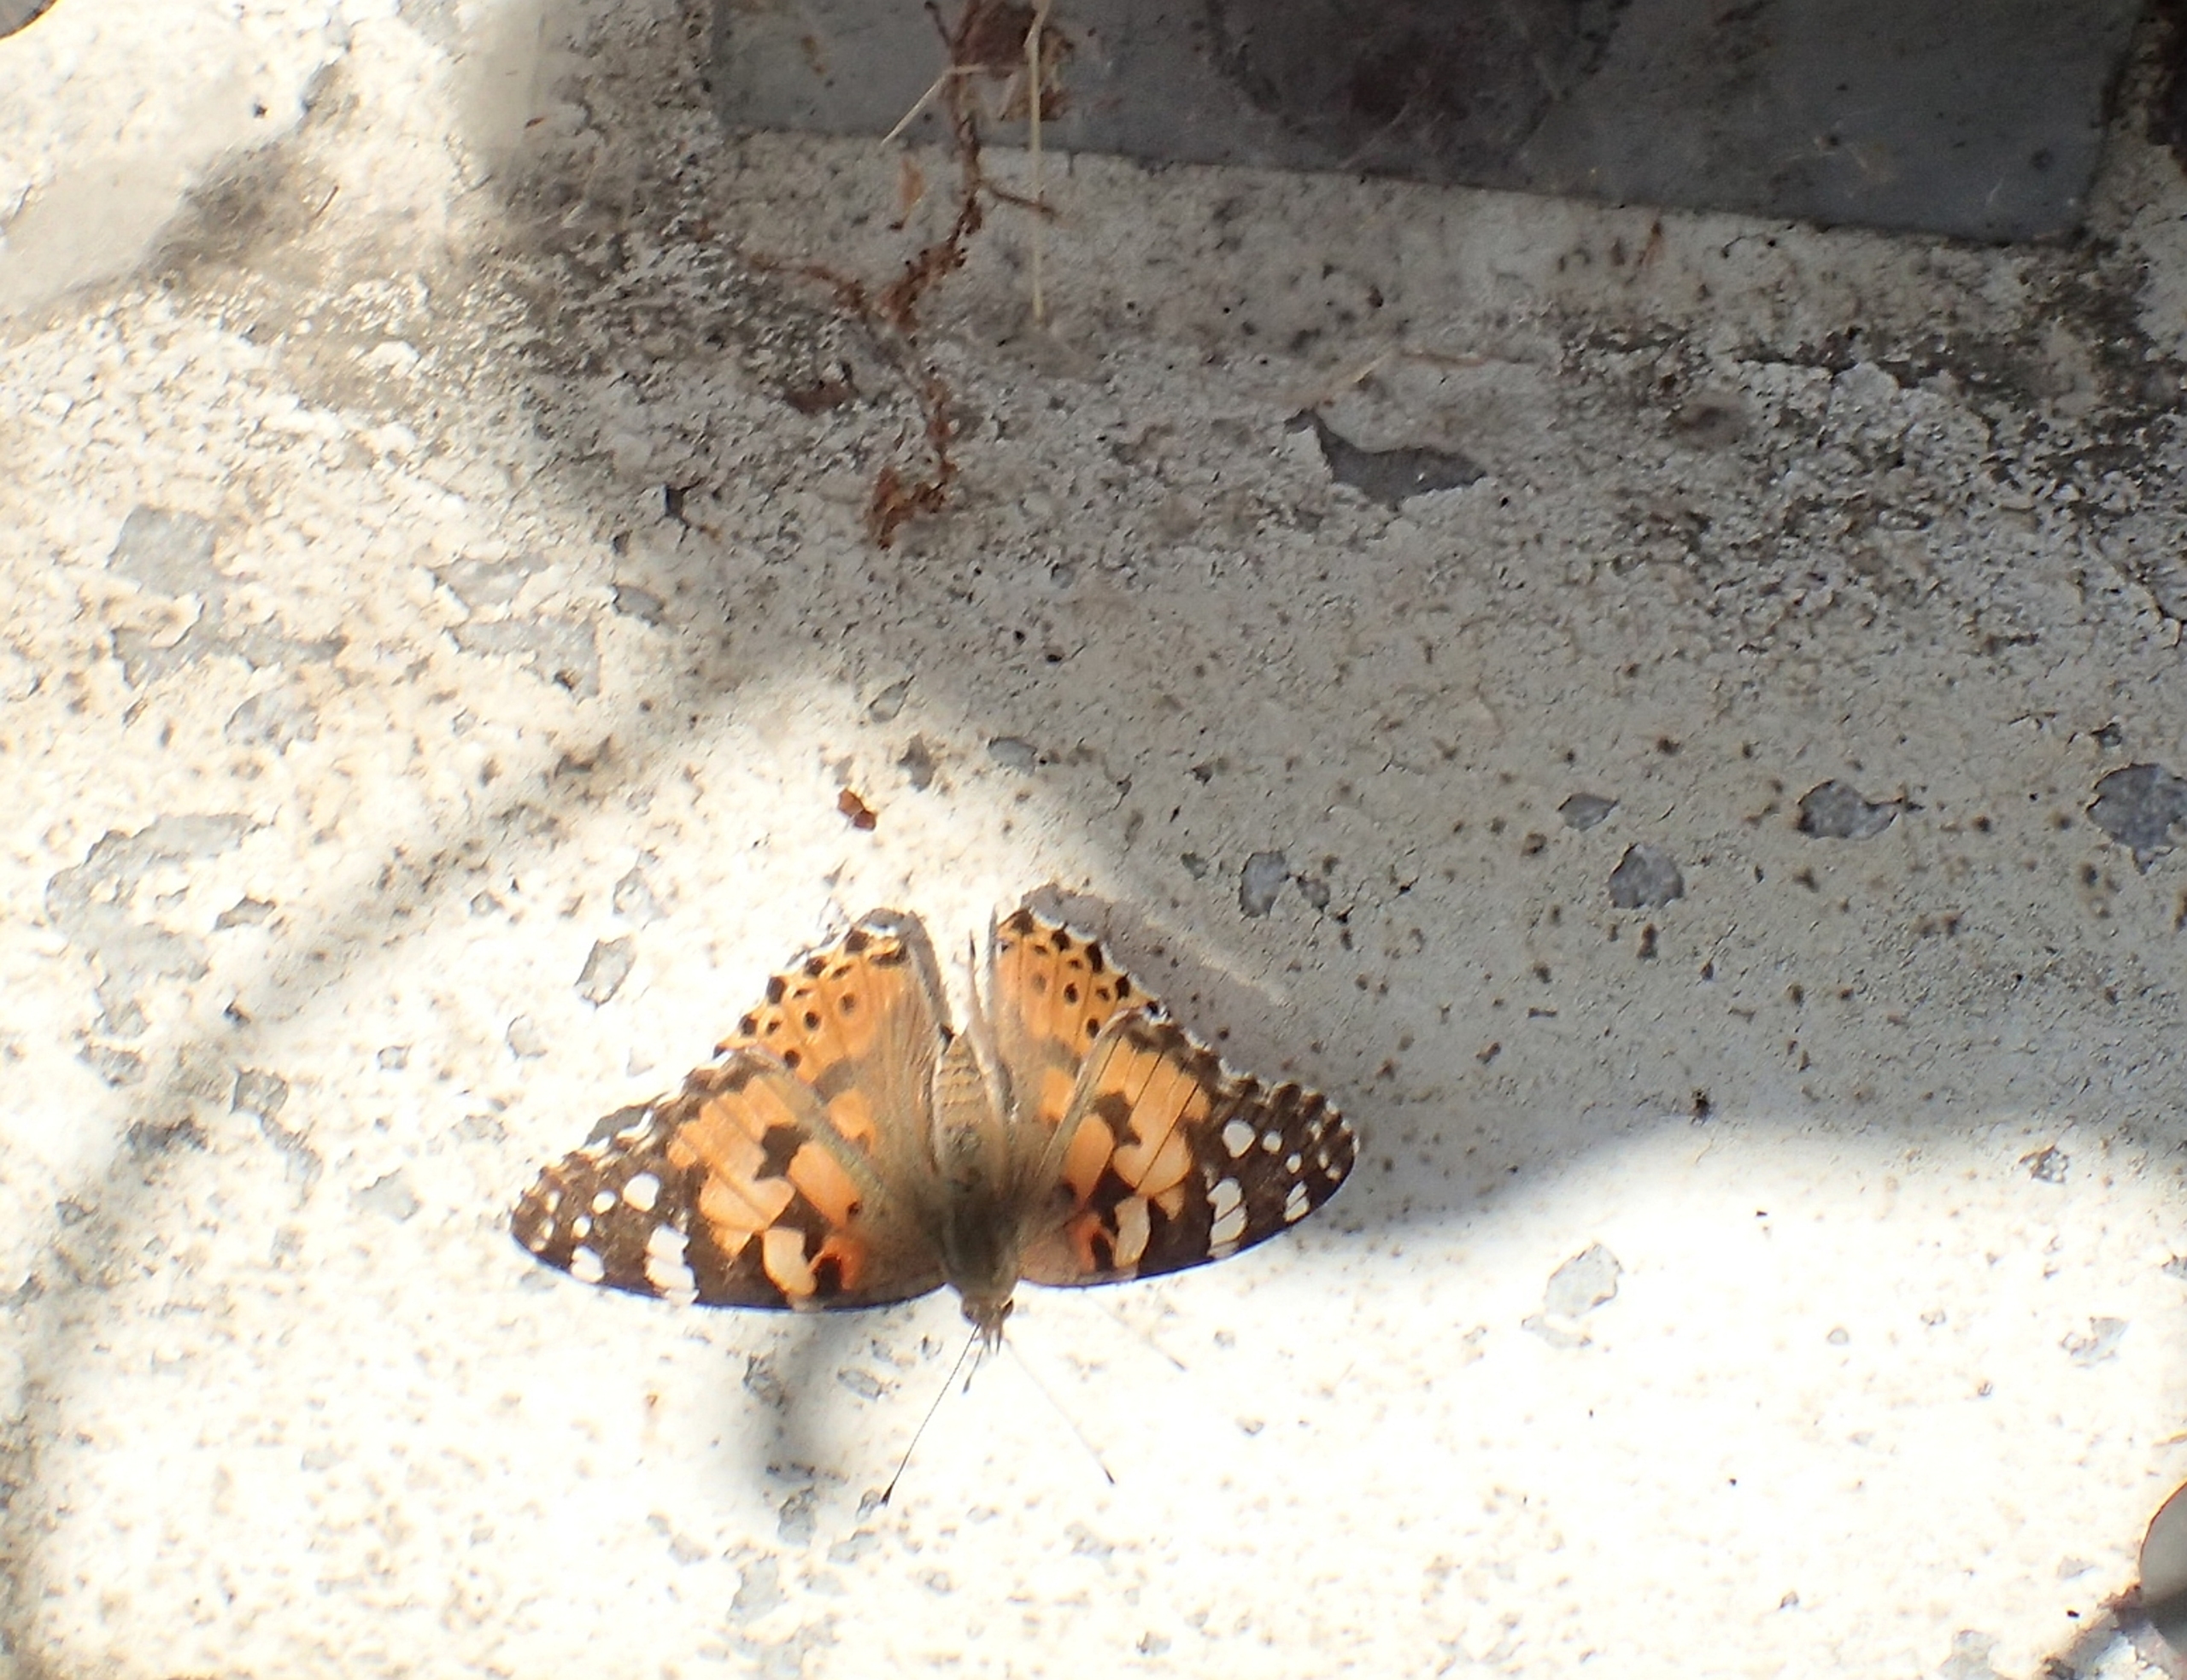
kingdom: Animalia
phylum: Arthropoda
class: Insecta
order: Lepidoptera
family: Nymphalidae
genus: Vanessa
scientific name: Vanessa cardui
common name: Tidselsommerfugl
